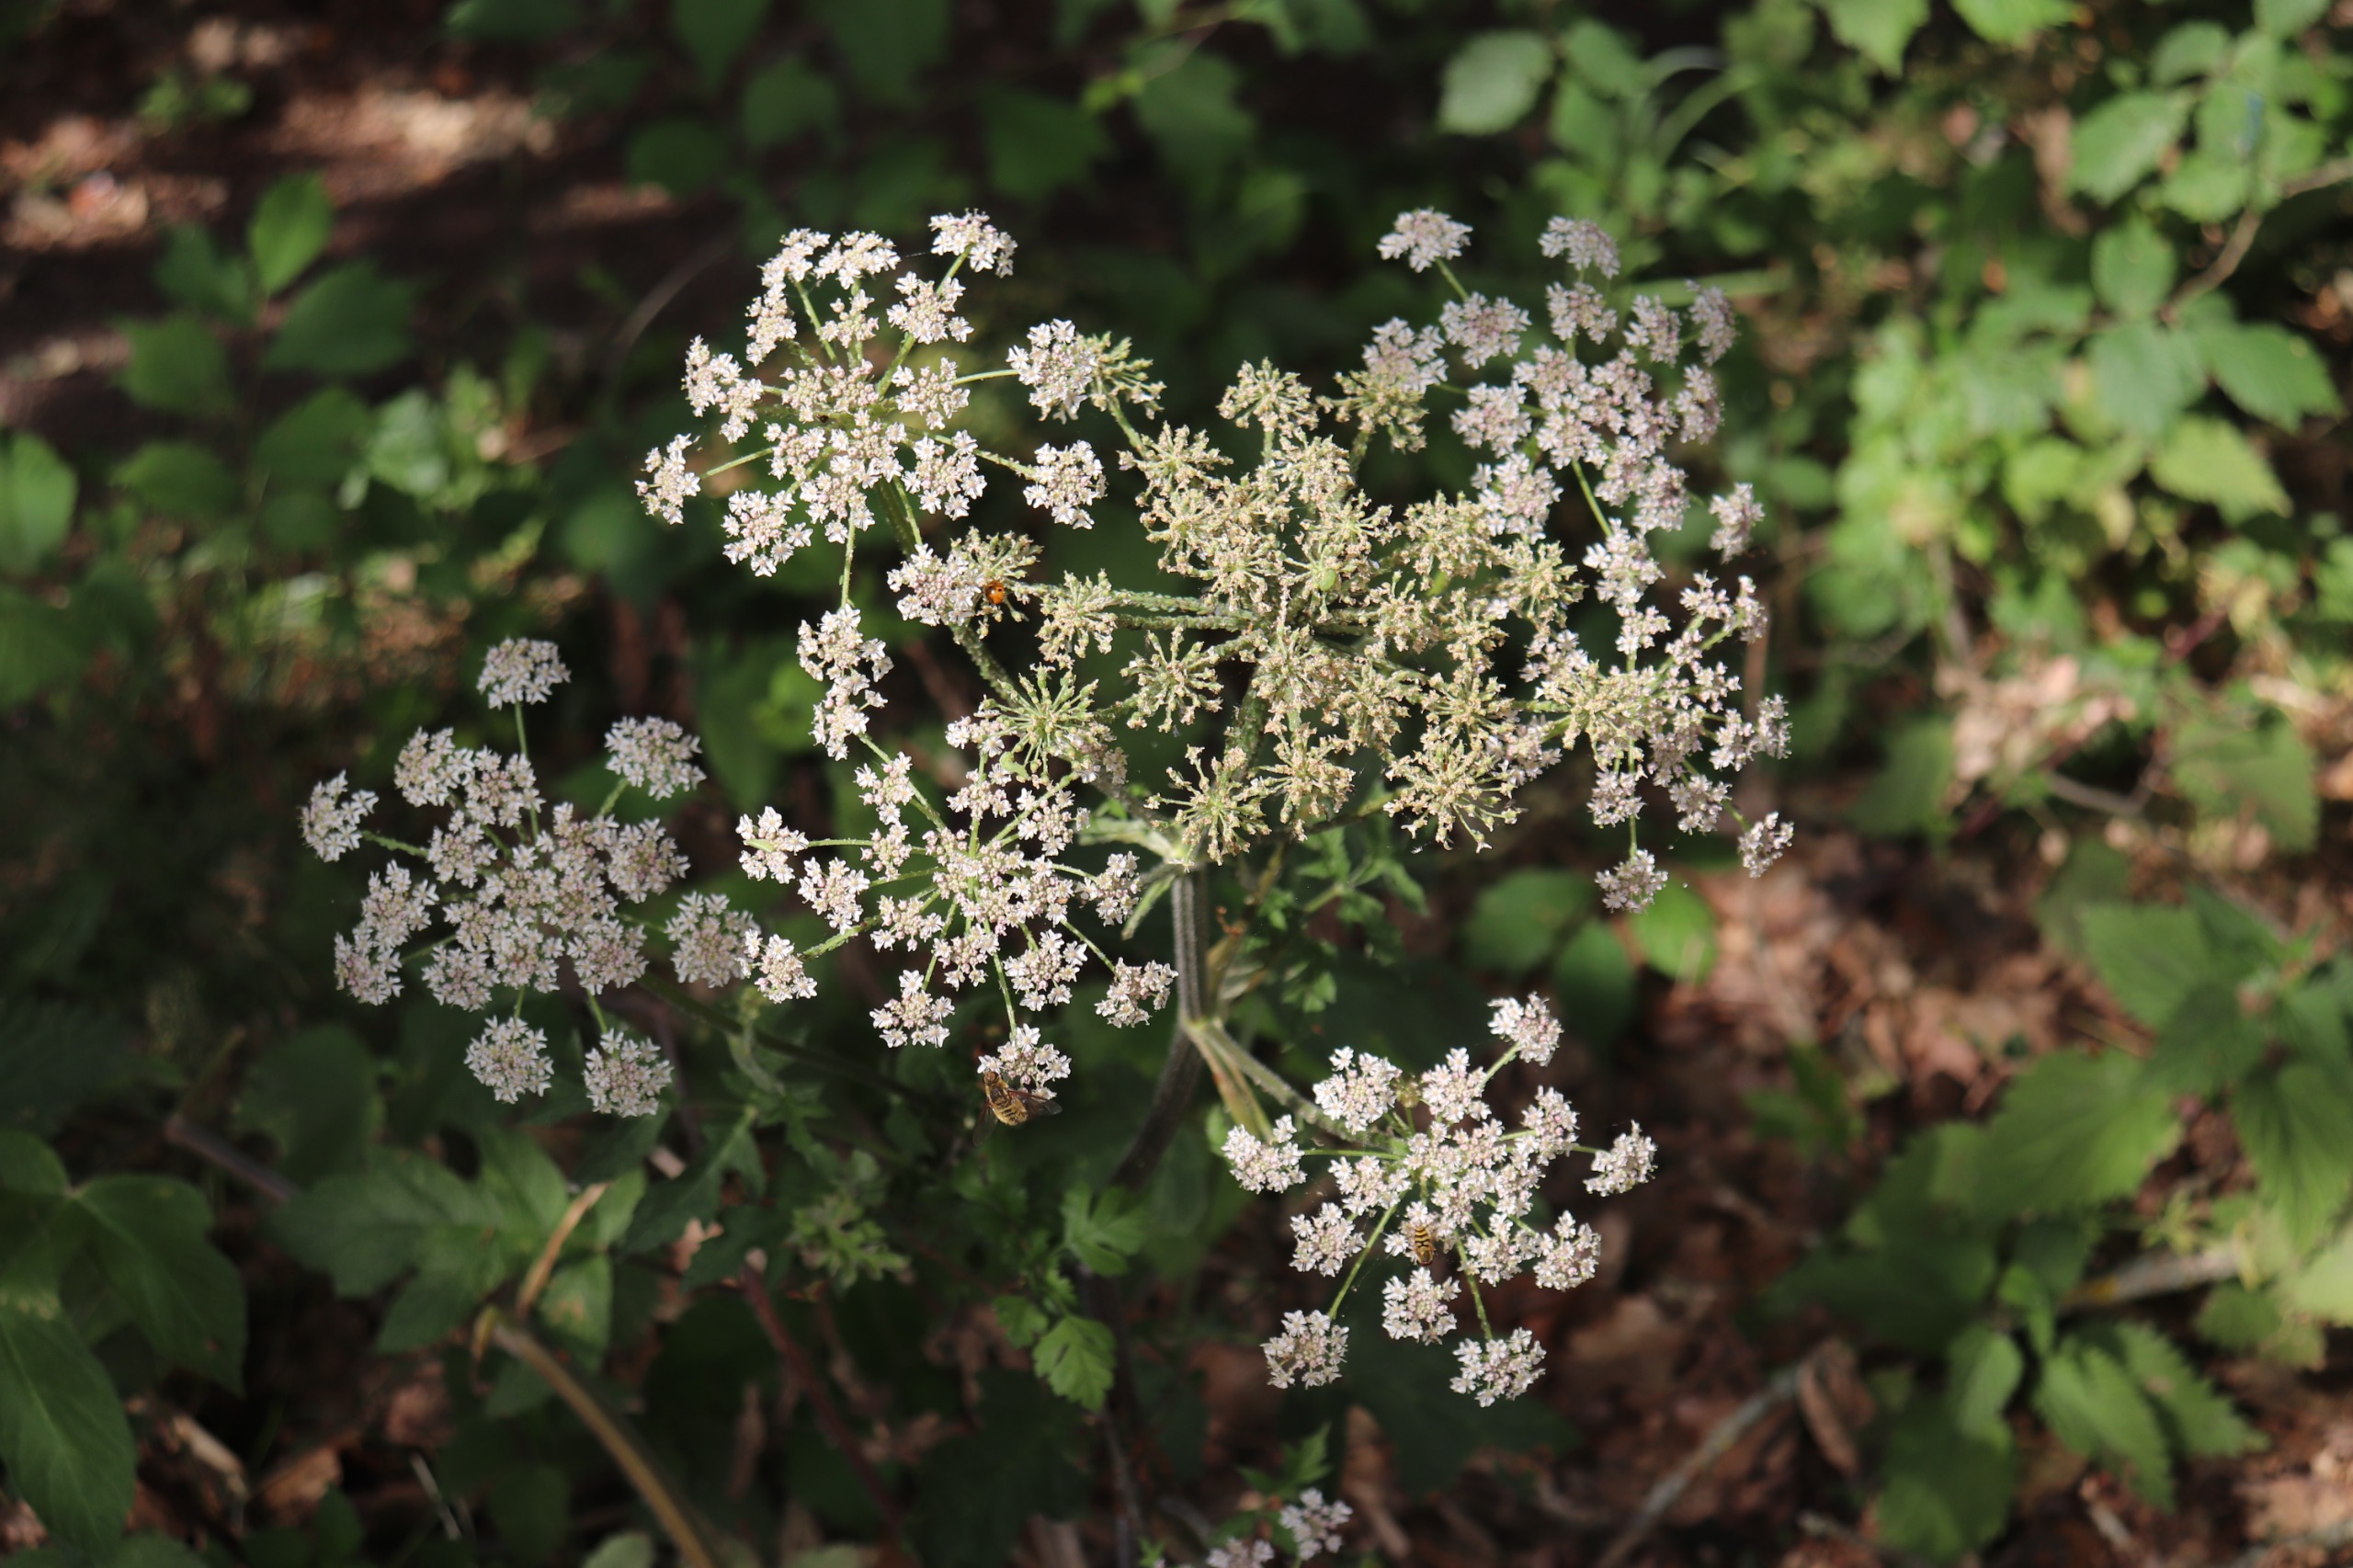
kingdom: Plantae
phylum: Tracheophyta
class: Magnoliopsida
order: Apiales
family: Apiaceae
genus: Heracleum
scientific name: Heracleum sphondylium
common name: Almindelig bjørneklo
